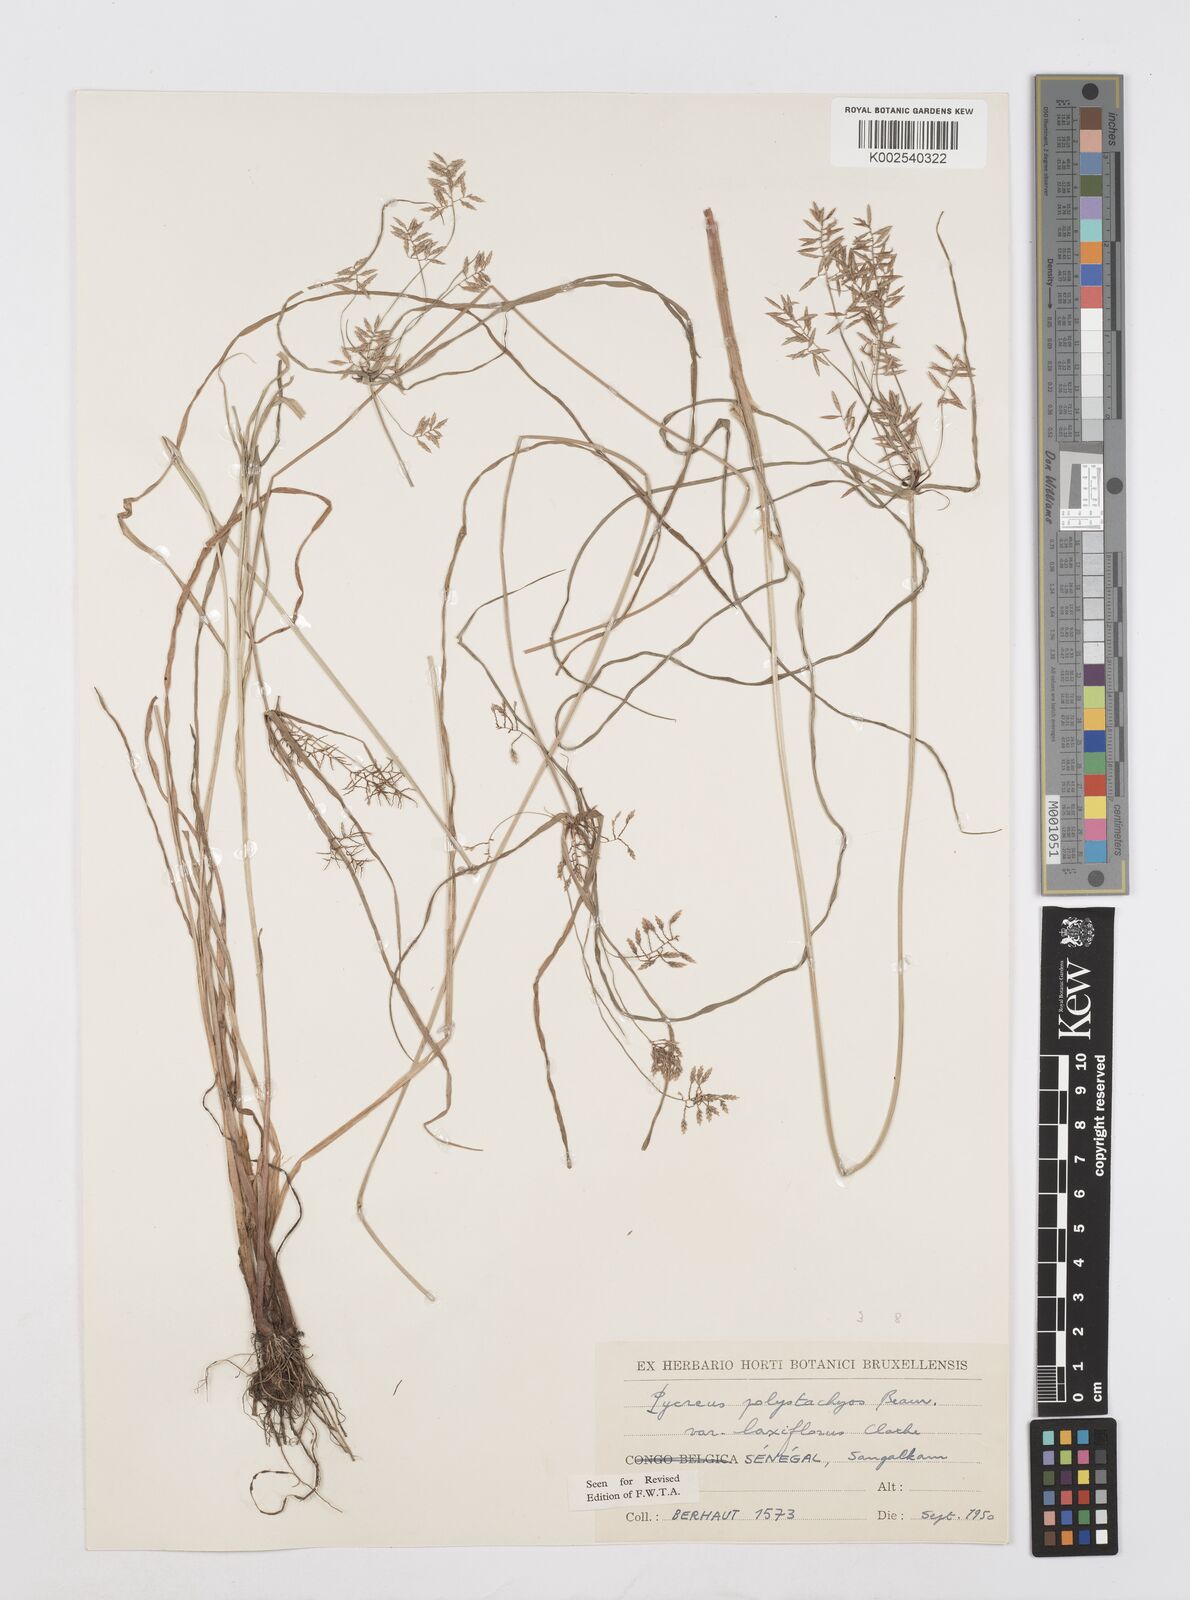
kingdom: Plantae
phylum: Tracheophyta
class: Liliopsida
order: Poales
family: Cyperaceae
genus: Cyperus
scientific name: Cyperus polystachyos
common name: Bunchy flat sedge
